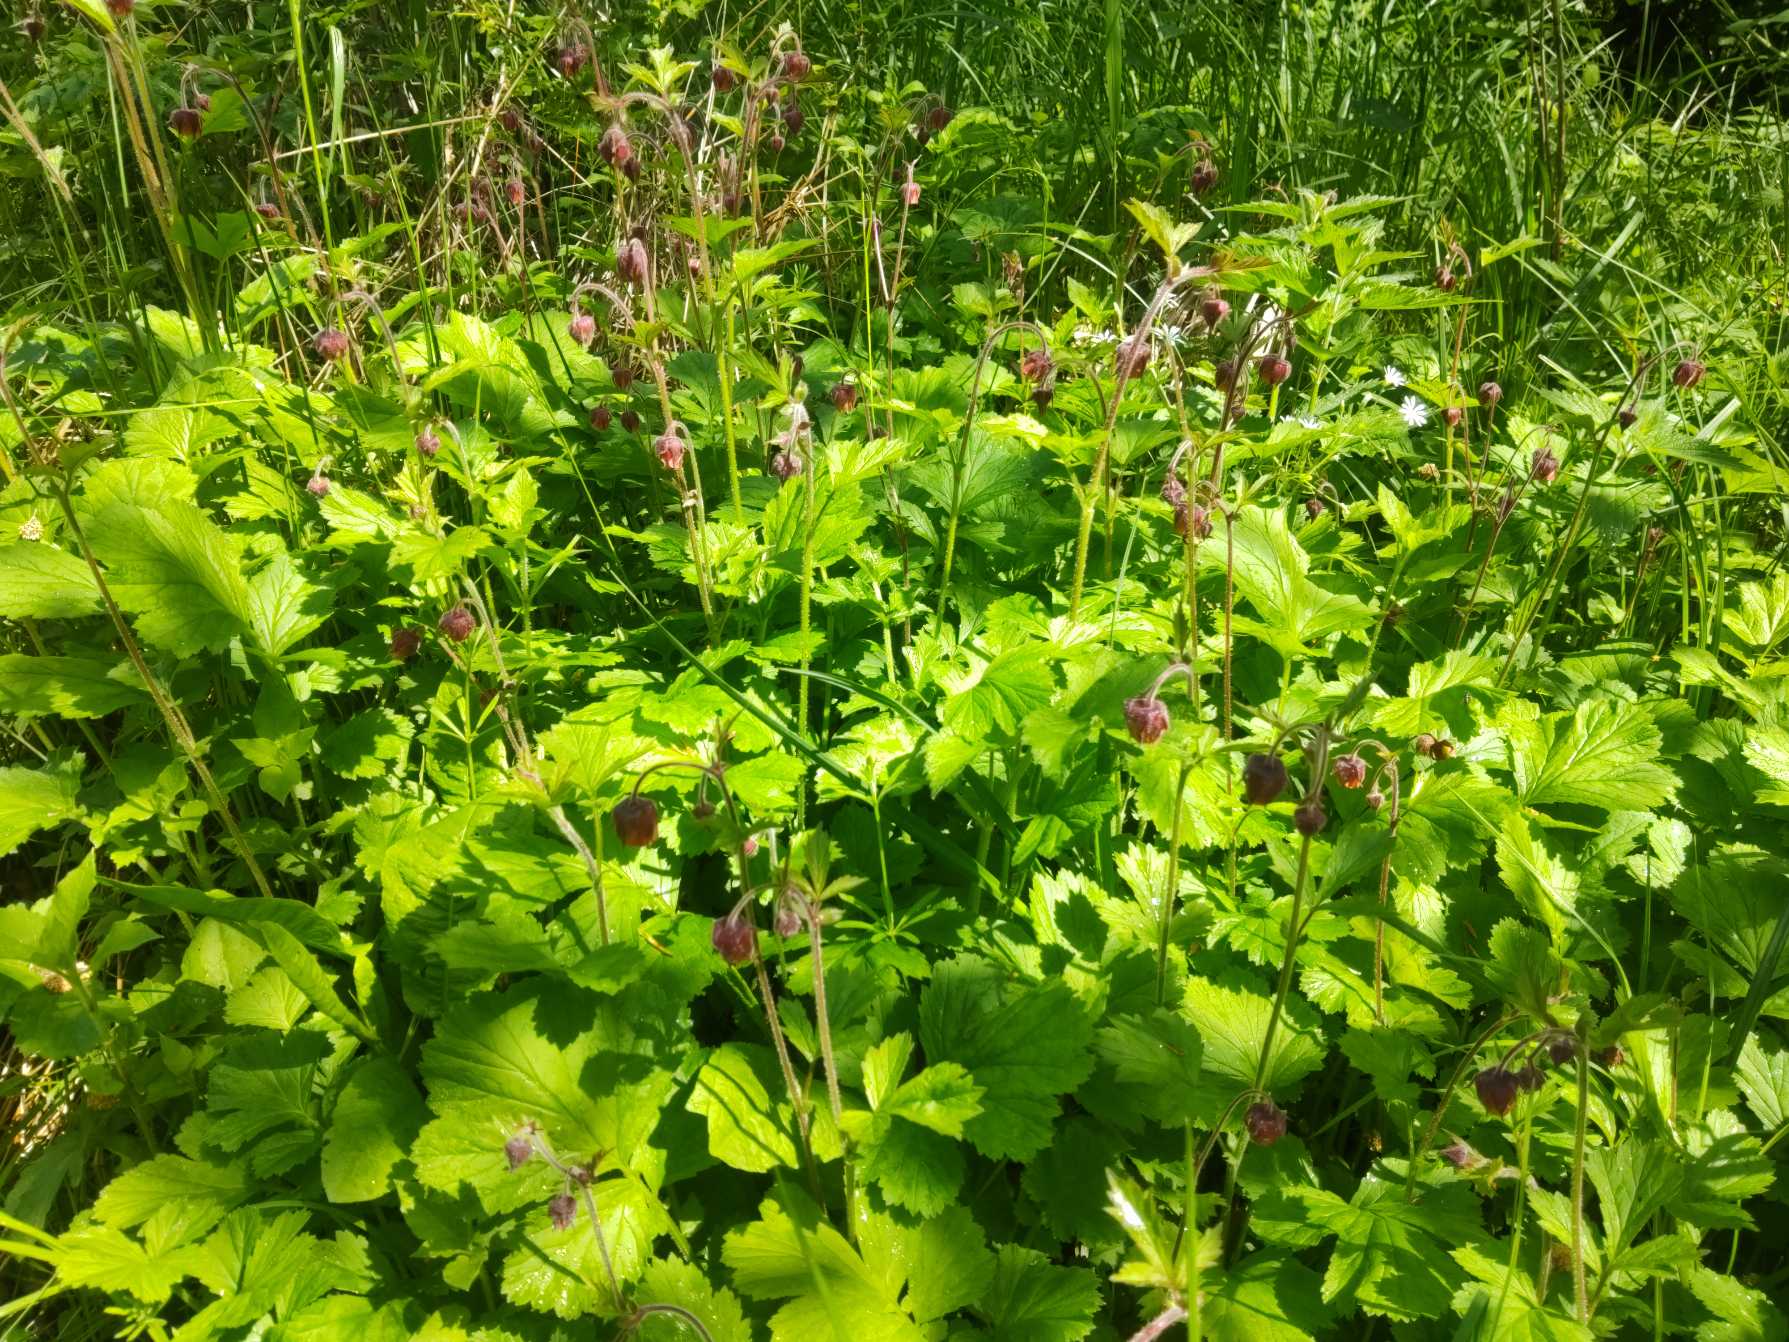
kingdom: Plantae
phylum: Tracheophyta
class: Magnoliopsida
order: Rosales
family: Rosaceae
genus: Geum
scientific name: Geum rivale
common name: Eng-nellikerod
